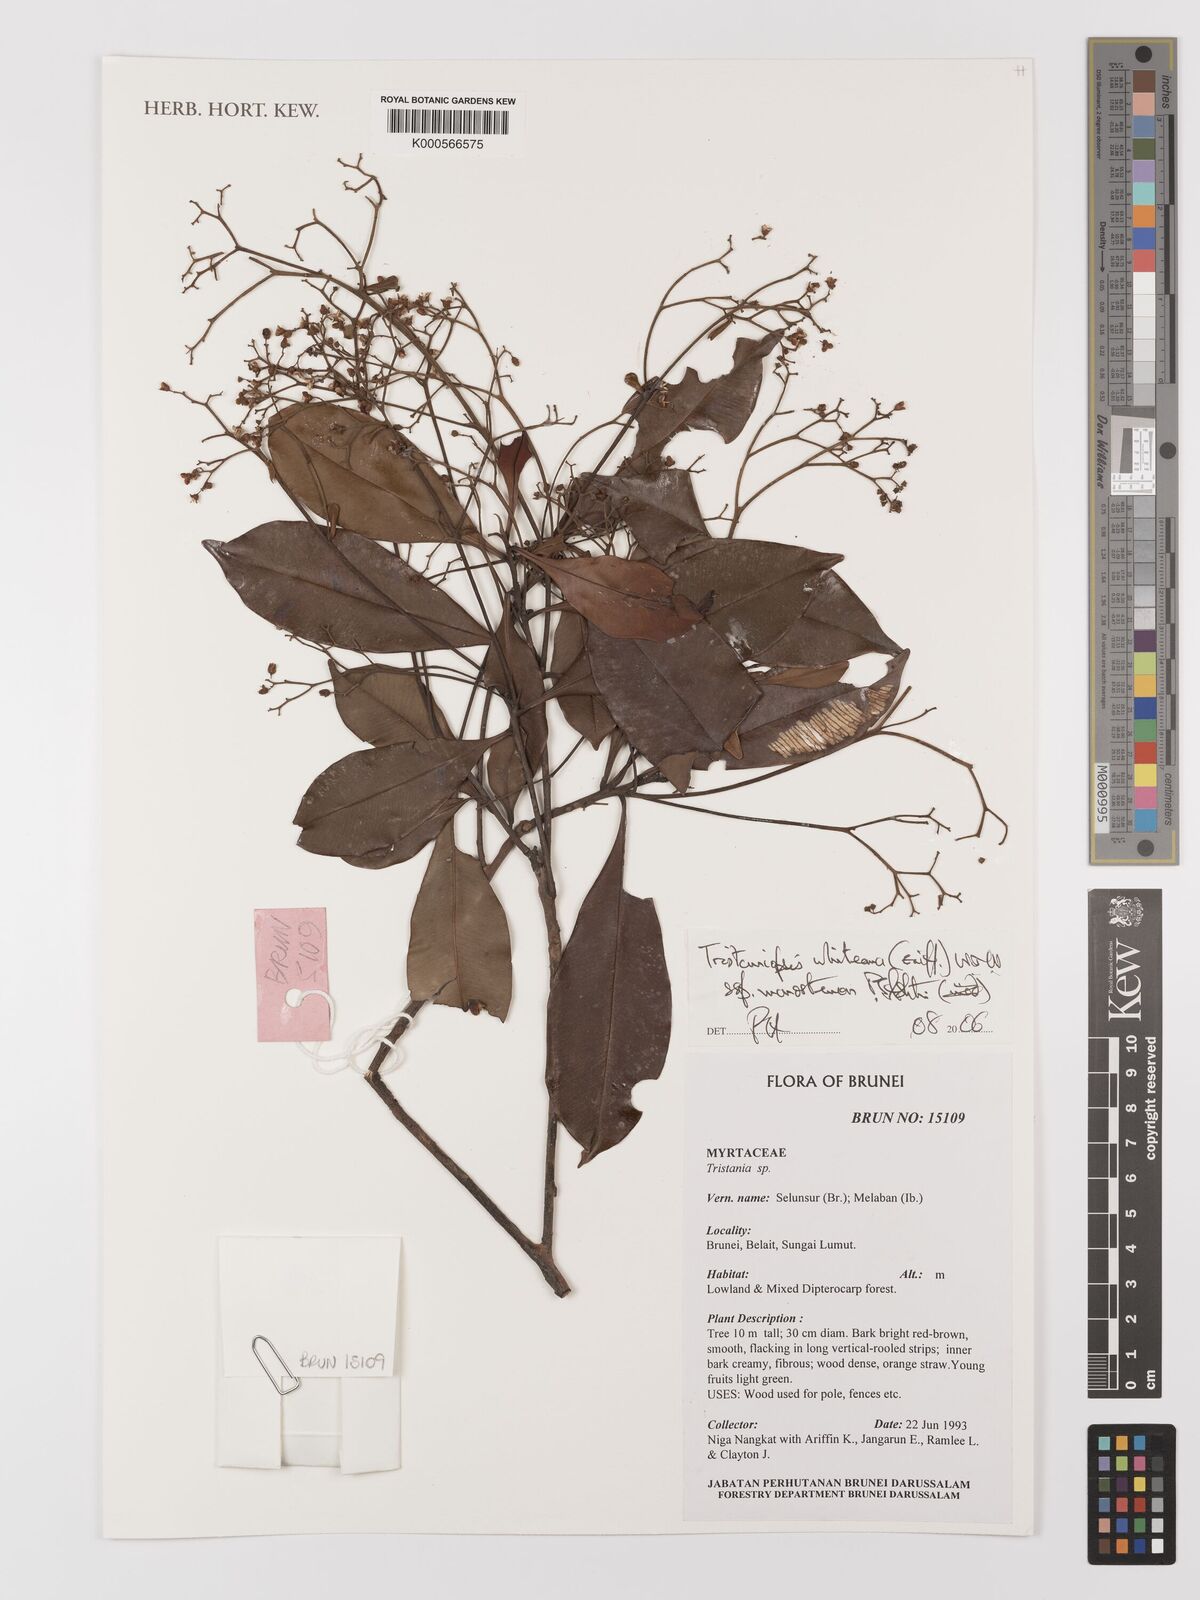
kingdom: Plantae
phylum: Tracheophyta
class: Magnoliopsida
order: Myrtales
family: Myrtaceae
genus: Tristaniopsis
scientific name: Tristaniopsis whiteana
